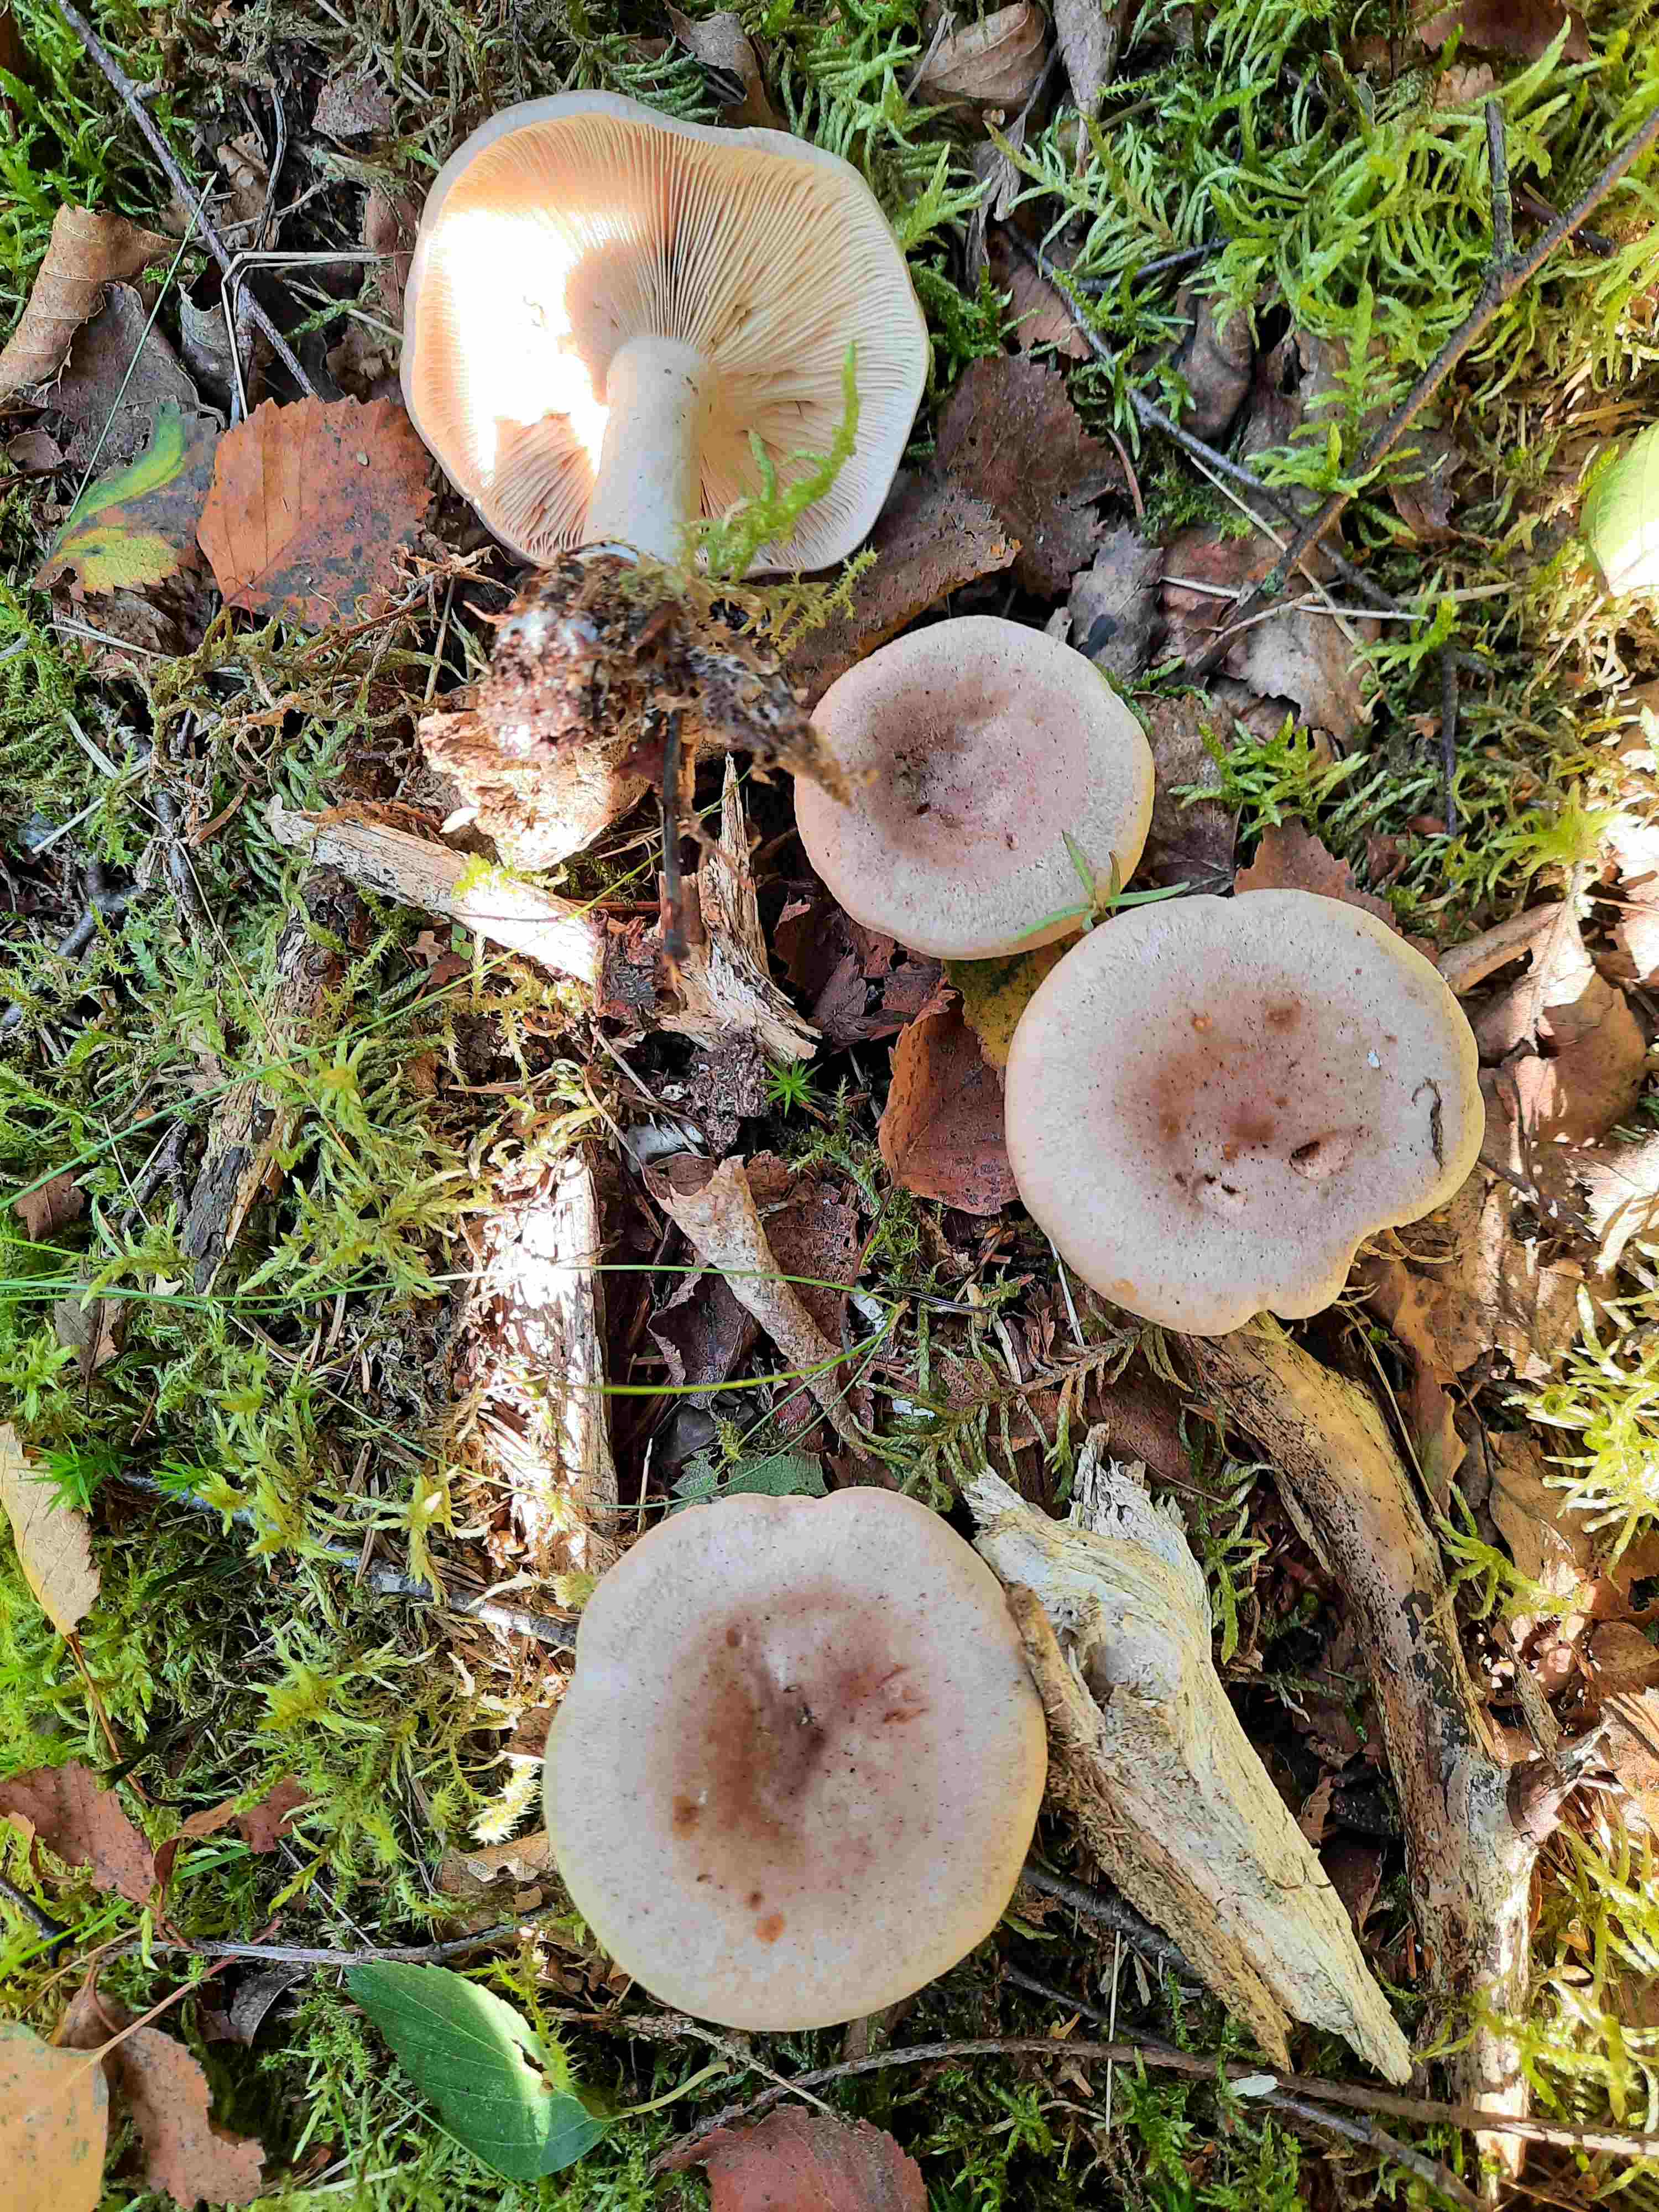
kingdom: Fungi
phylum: Basidiomycota
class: Agaricomycetes
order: Russulales
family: Russulaceae
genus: Lactarius
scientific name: Lactarius vietus
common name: violetgrå mælkehat
